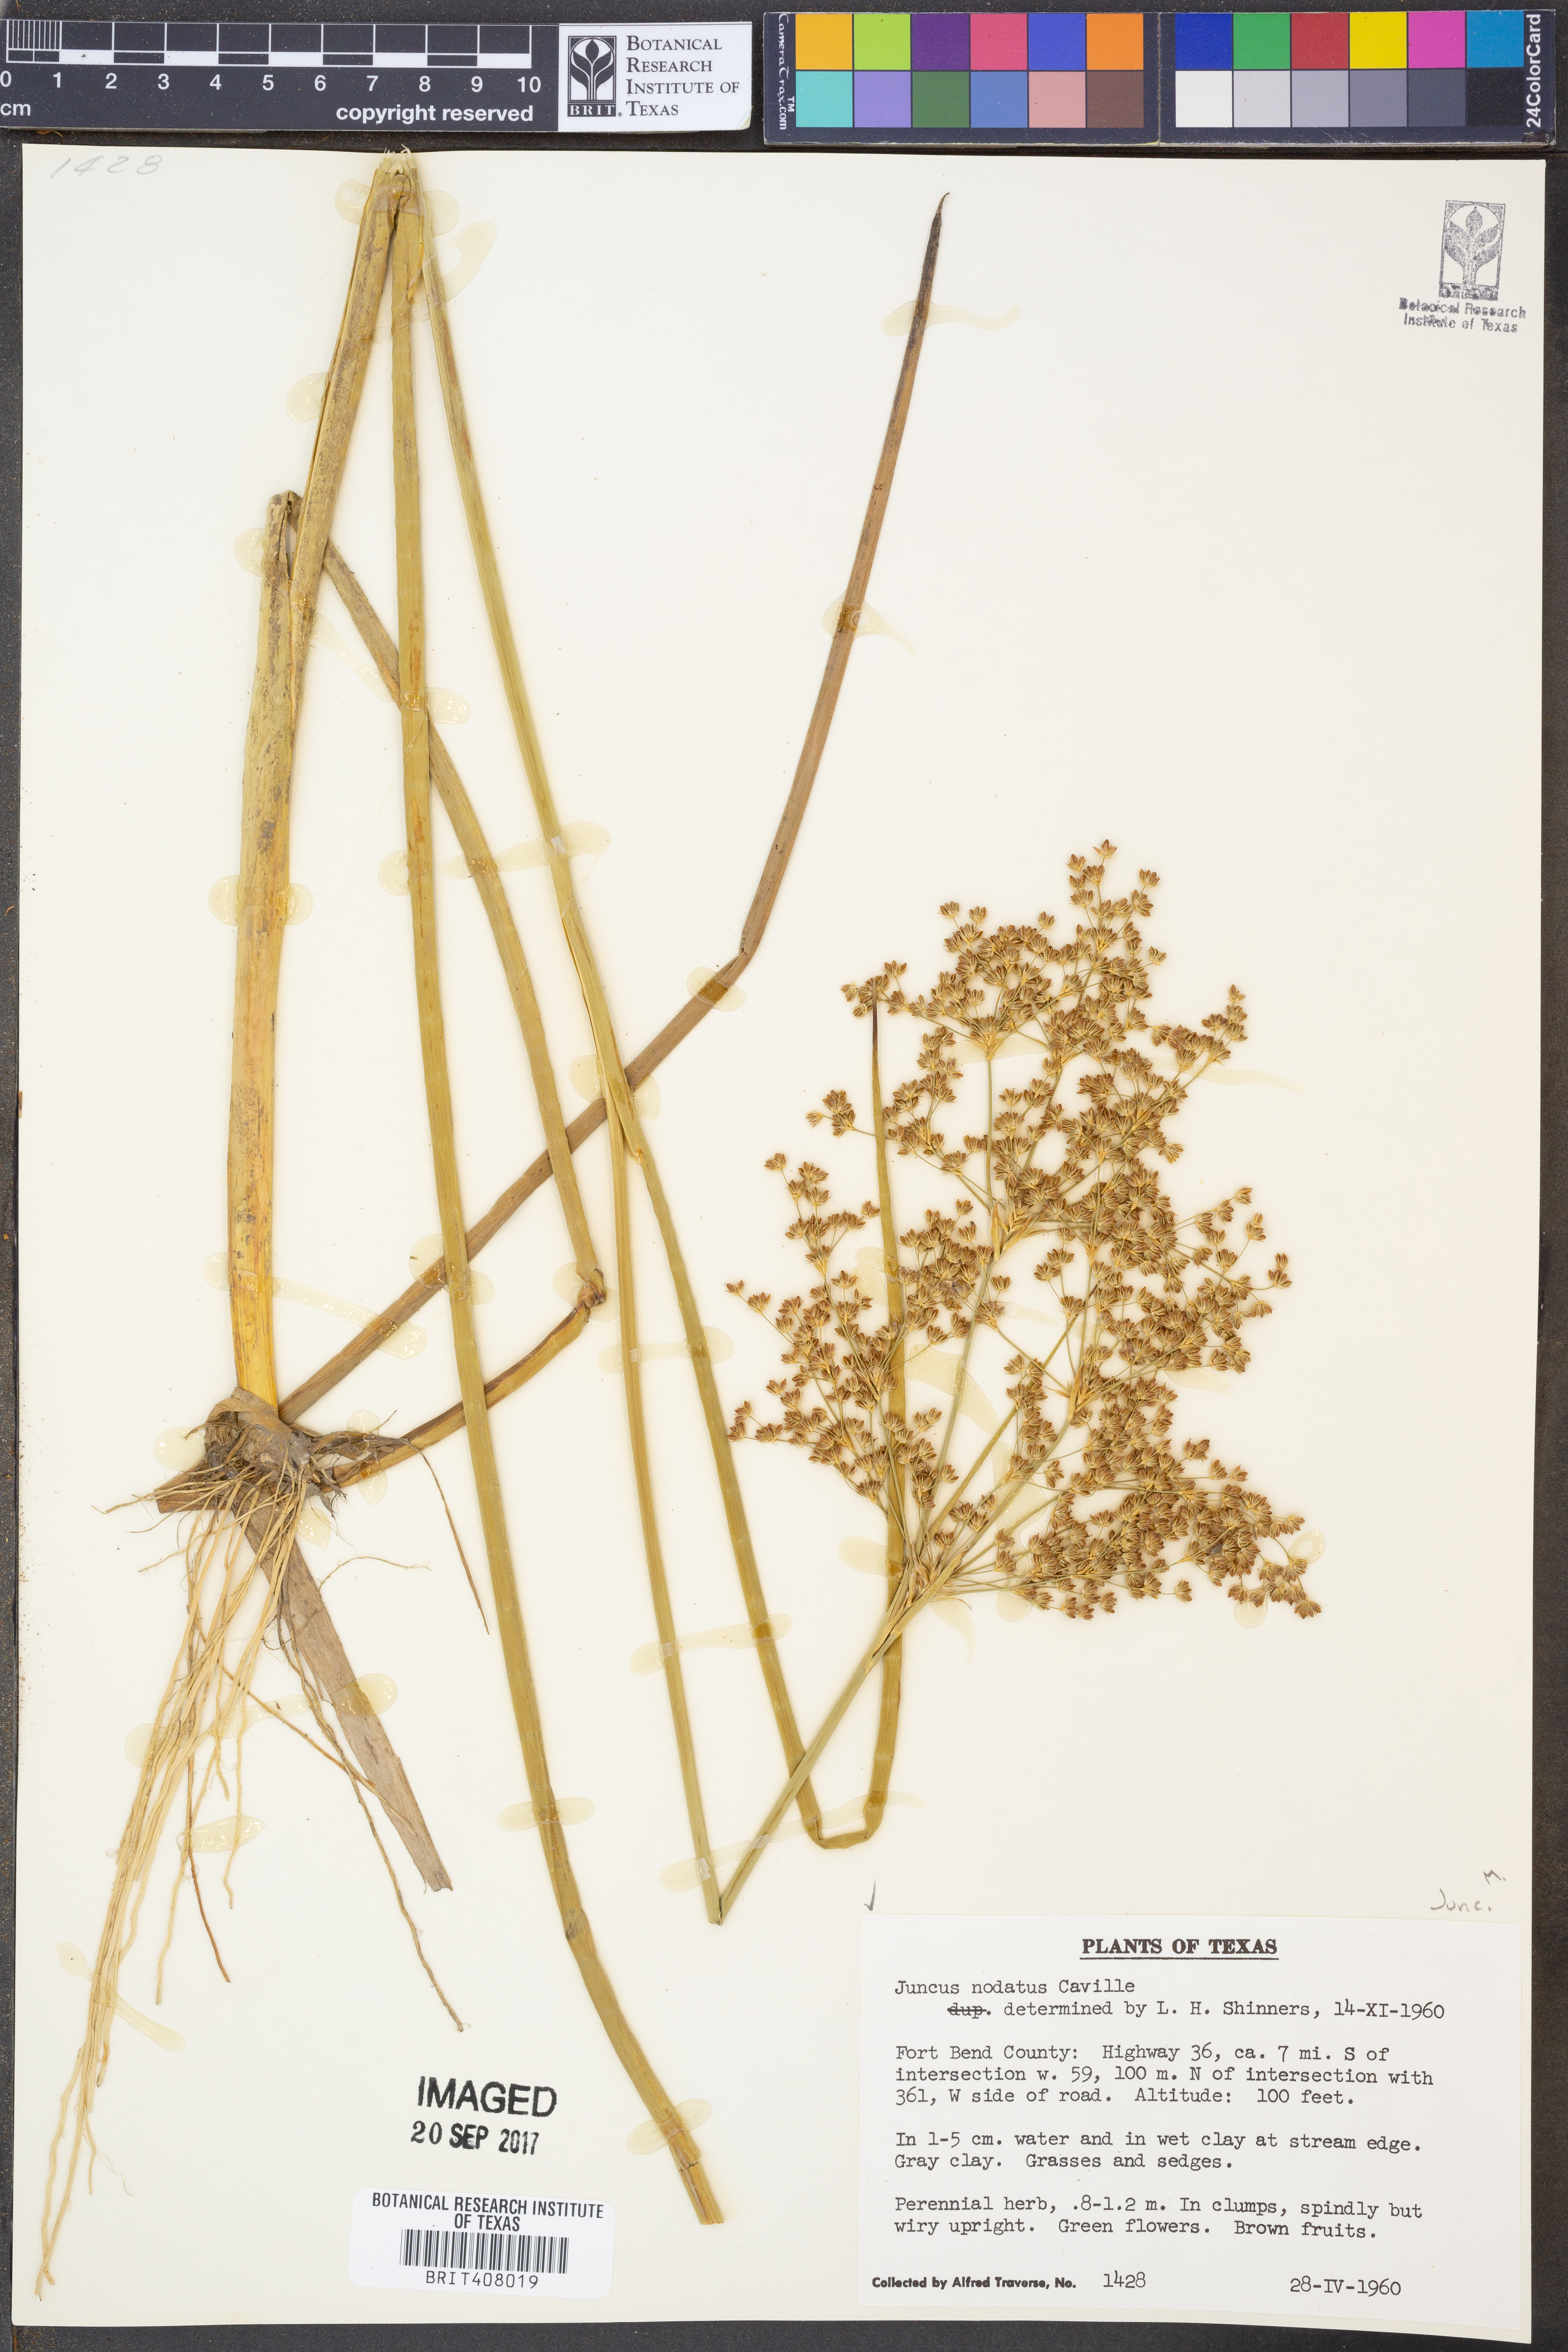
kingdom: Plantae
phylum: Tracheophyta
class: Liliopsida
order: Poales
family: Juncaceae
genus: Juncus
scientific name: Juncus nodatus
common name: Stout rush
